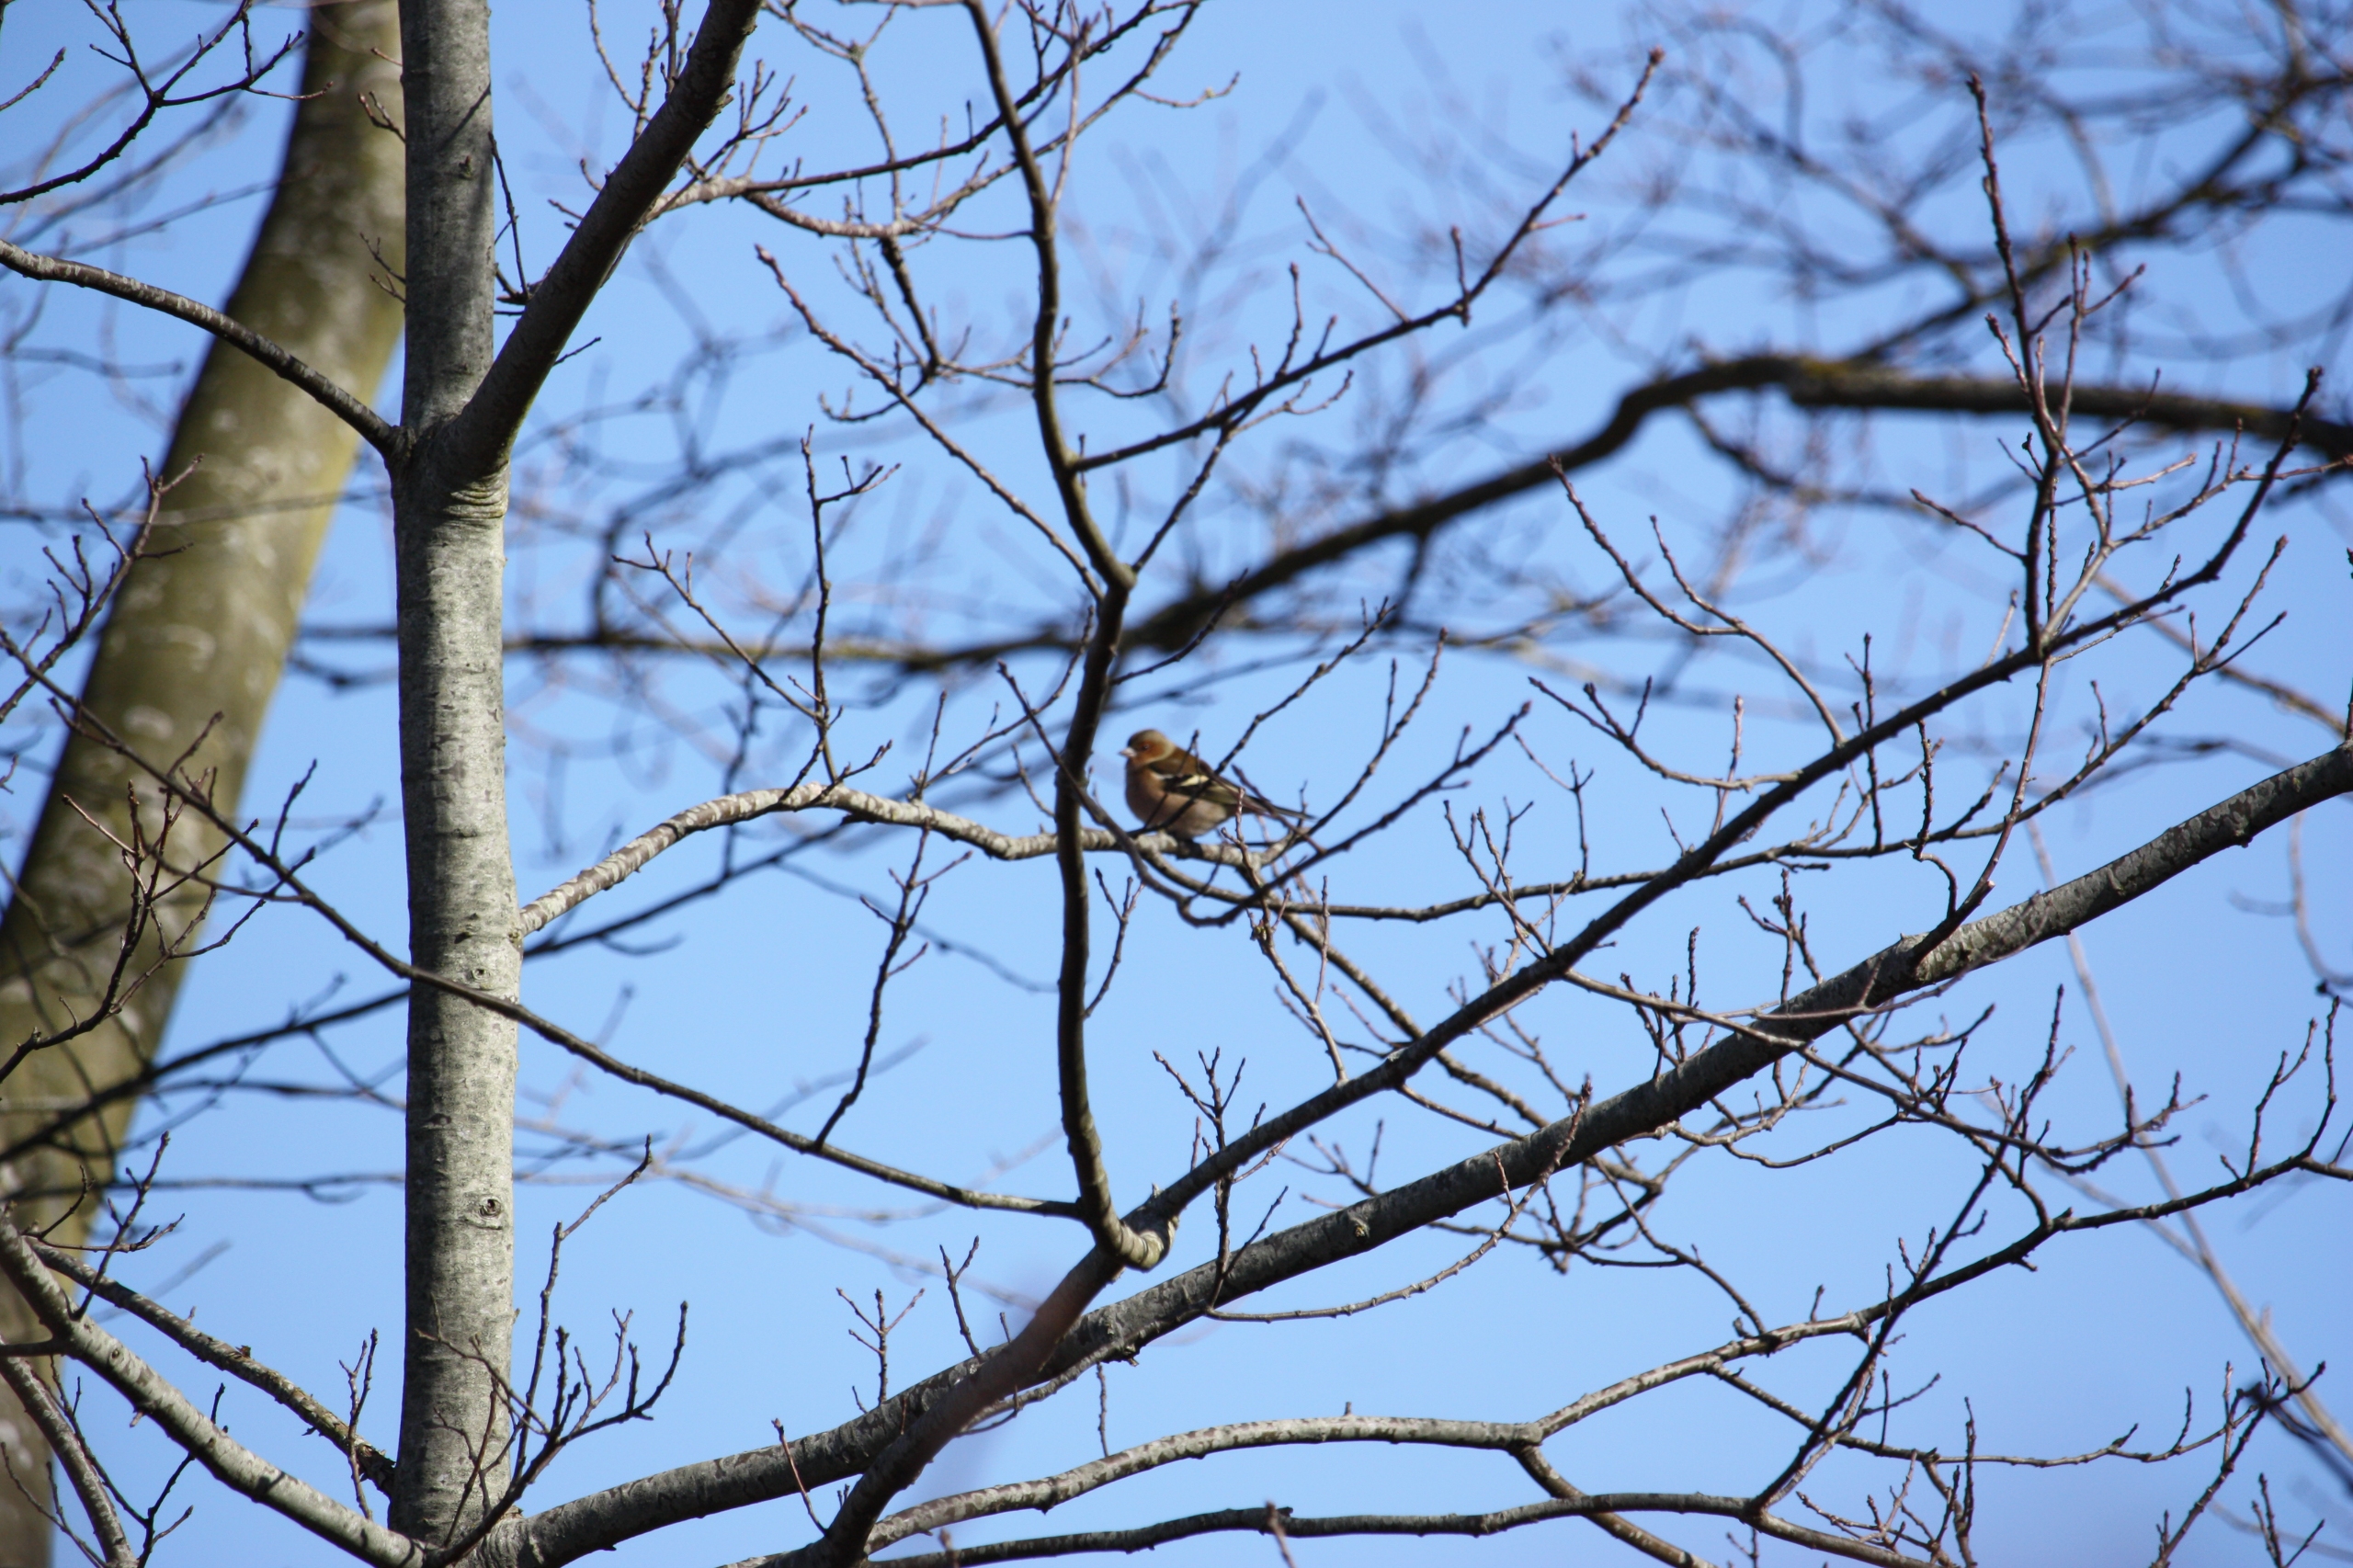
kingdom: Animalia
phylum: Chordata
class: Aves
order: Passeriformes
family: Fringillidae
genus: Fringilla
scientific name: Fringilla coelebs
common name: Bogfinke
